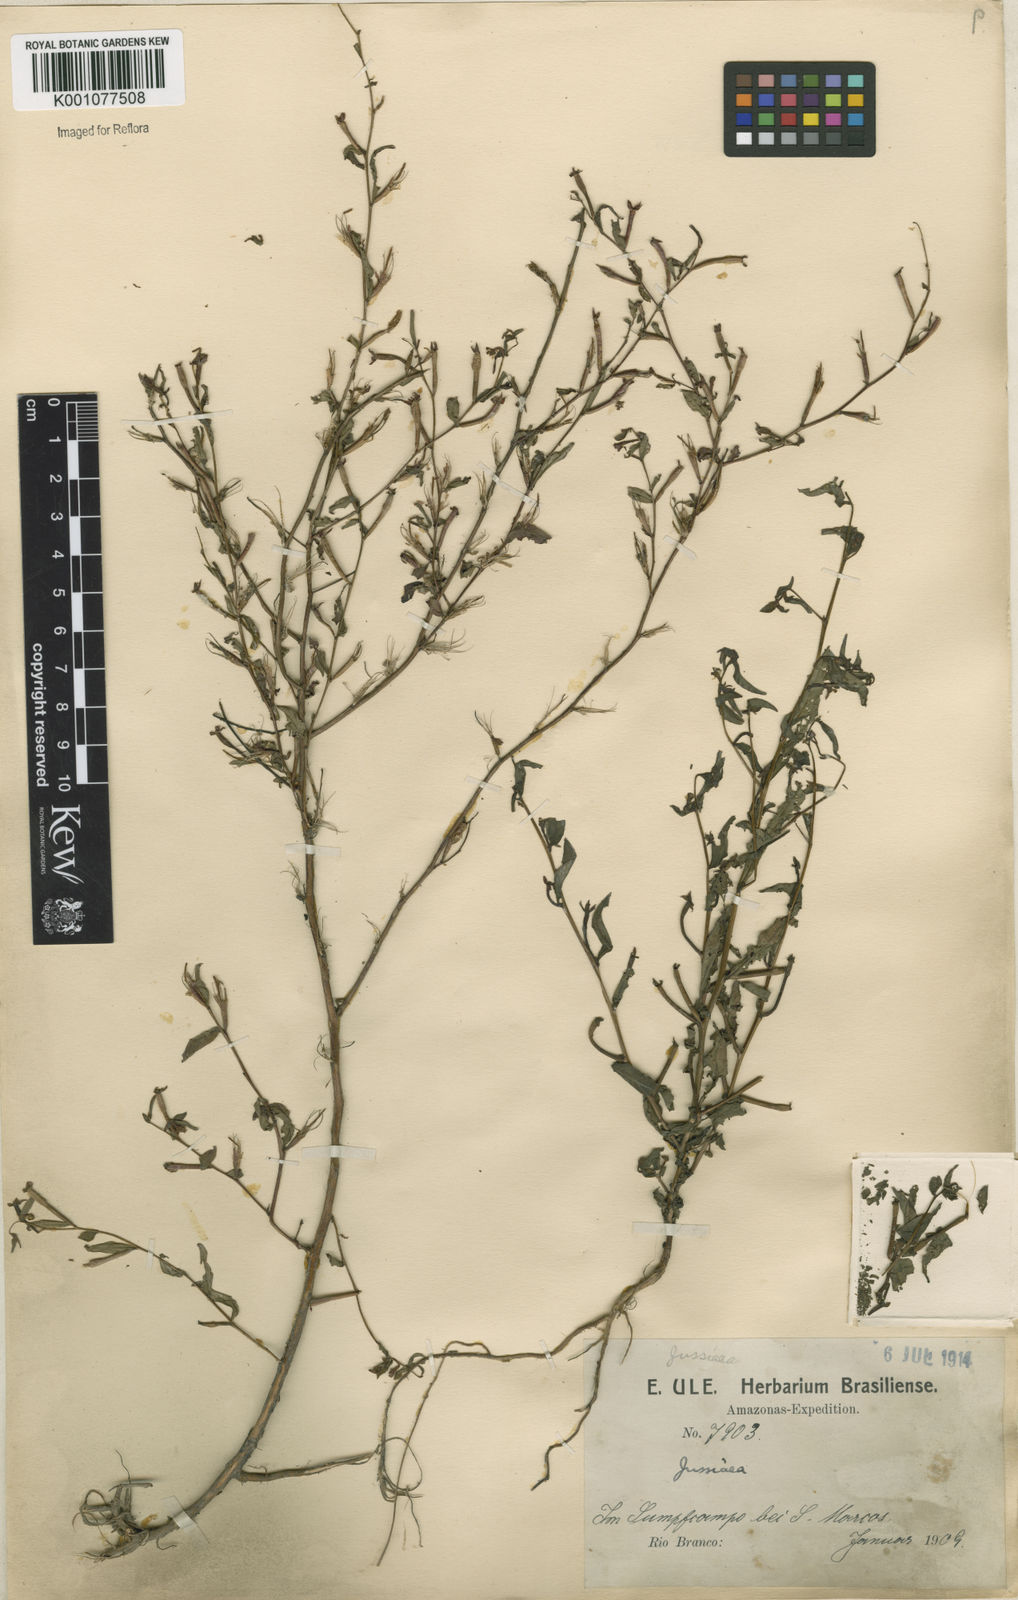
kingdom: Plantae
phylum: Tracheophyta
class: Magnoliopsida
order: Myrtales
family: Onagraceae
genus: Ludwigia
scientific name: Ludwigia hyssopifolia
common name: Linear leaf water primrose
